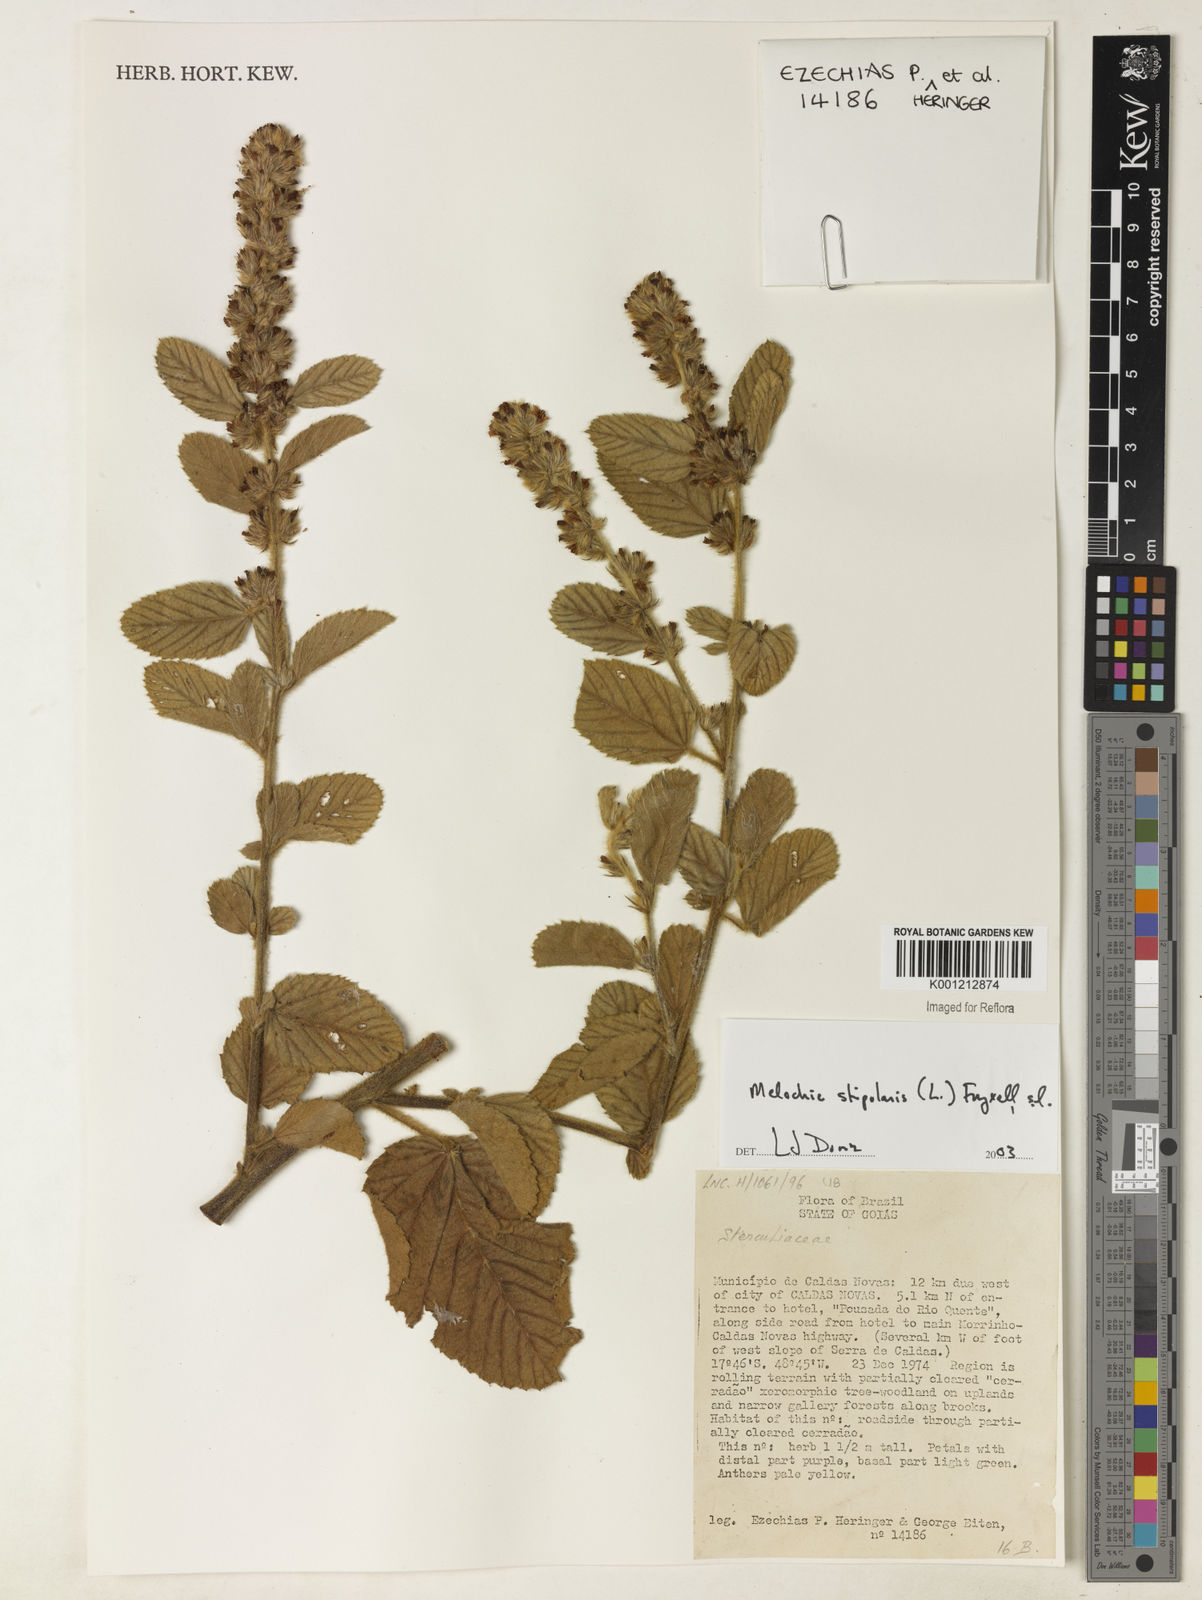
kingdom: Plantae
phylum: Tracheophyta
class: Magnoliopsida
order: Malvales
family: Malvaceae
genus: Melochia
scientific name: Melochia
